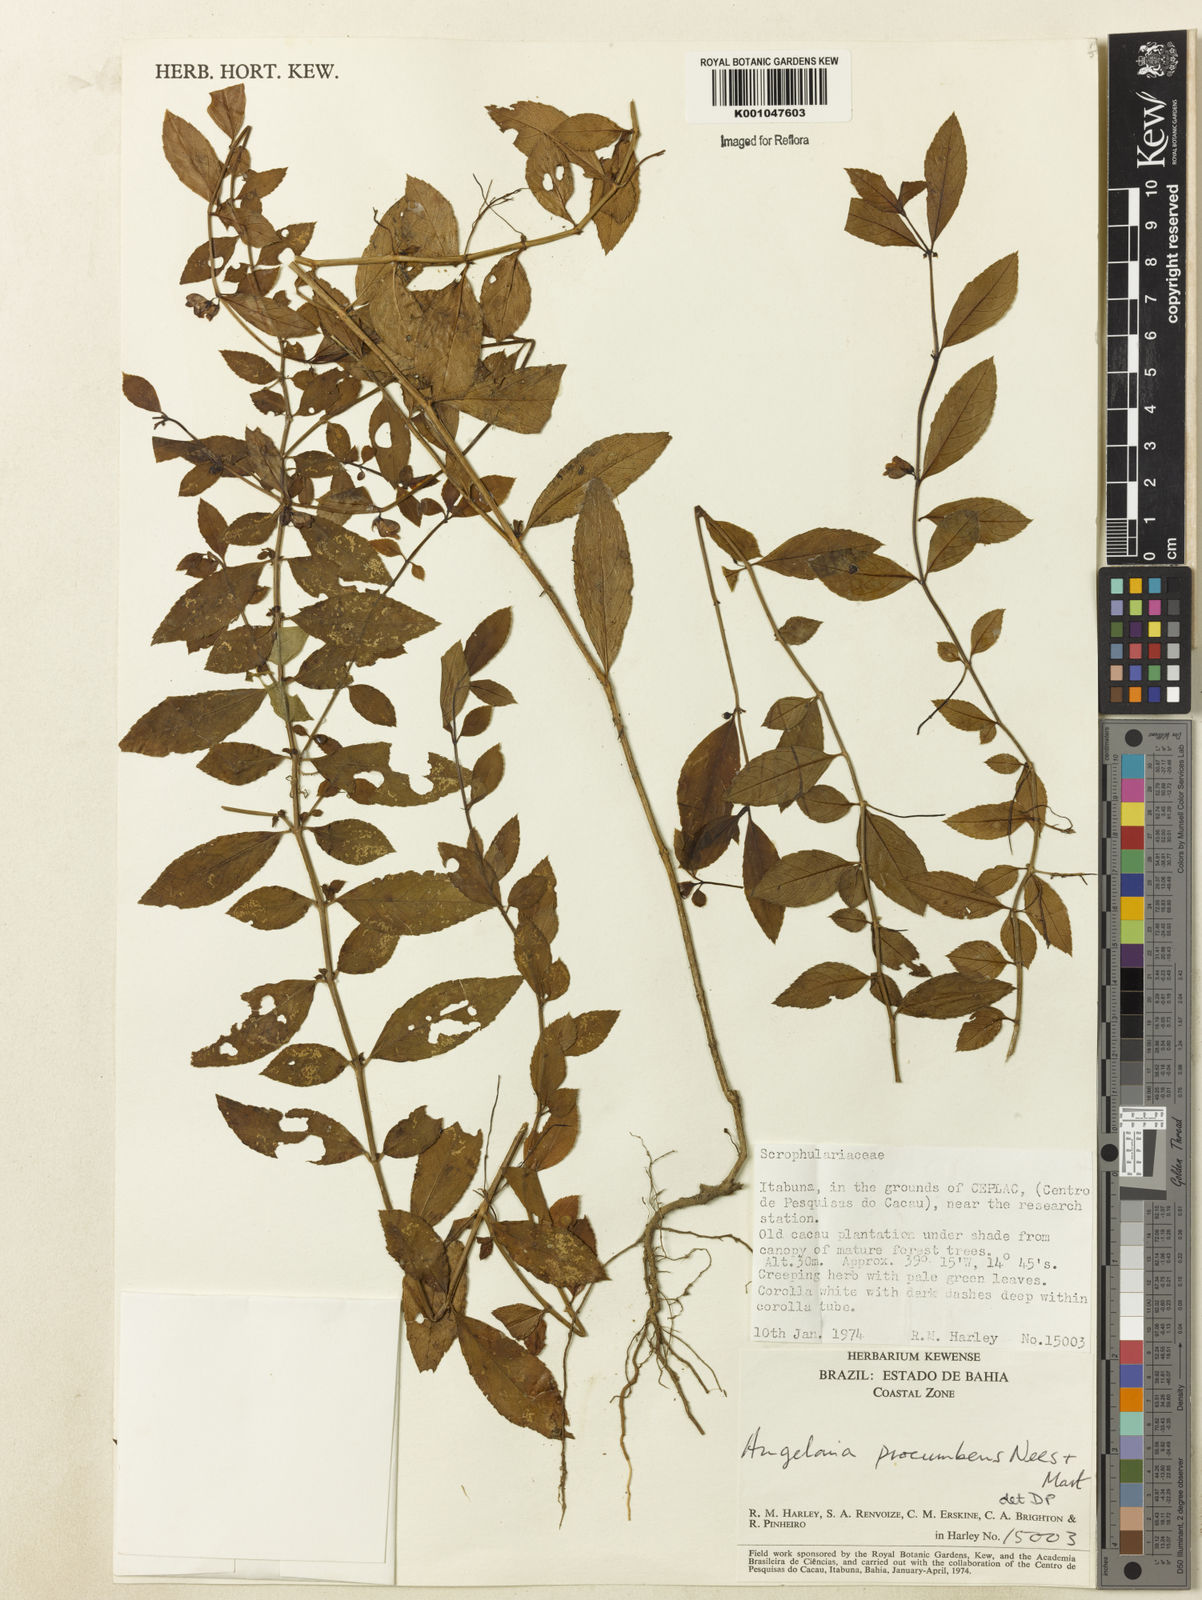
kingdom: Plantae
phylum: Tracheophyta
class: Magnoliopsida
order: Lamiales
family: Plantaginaceae
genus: Angelonia
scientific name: Angelonia procumbens
